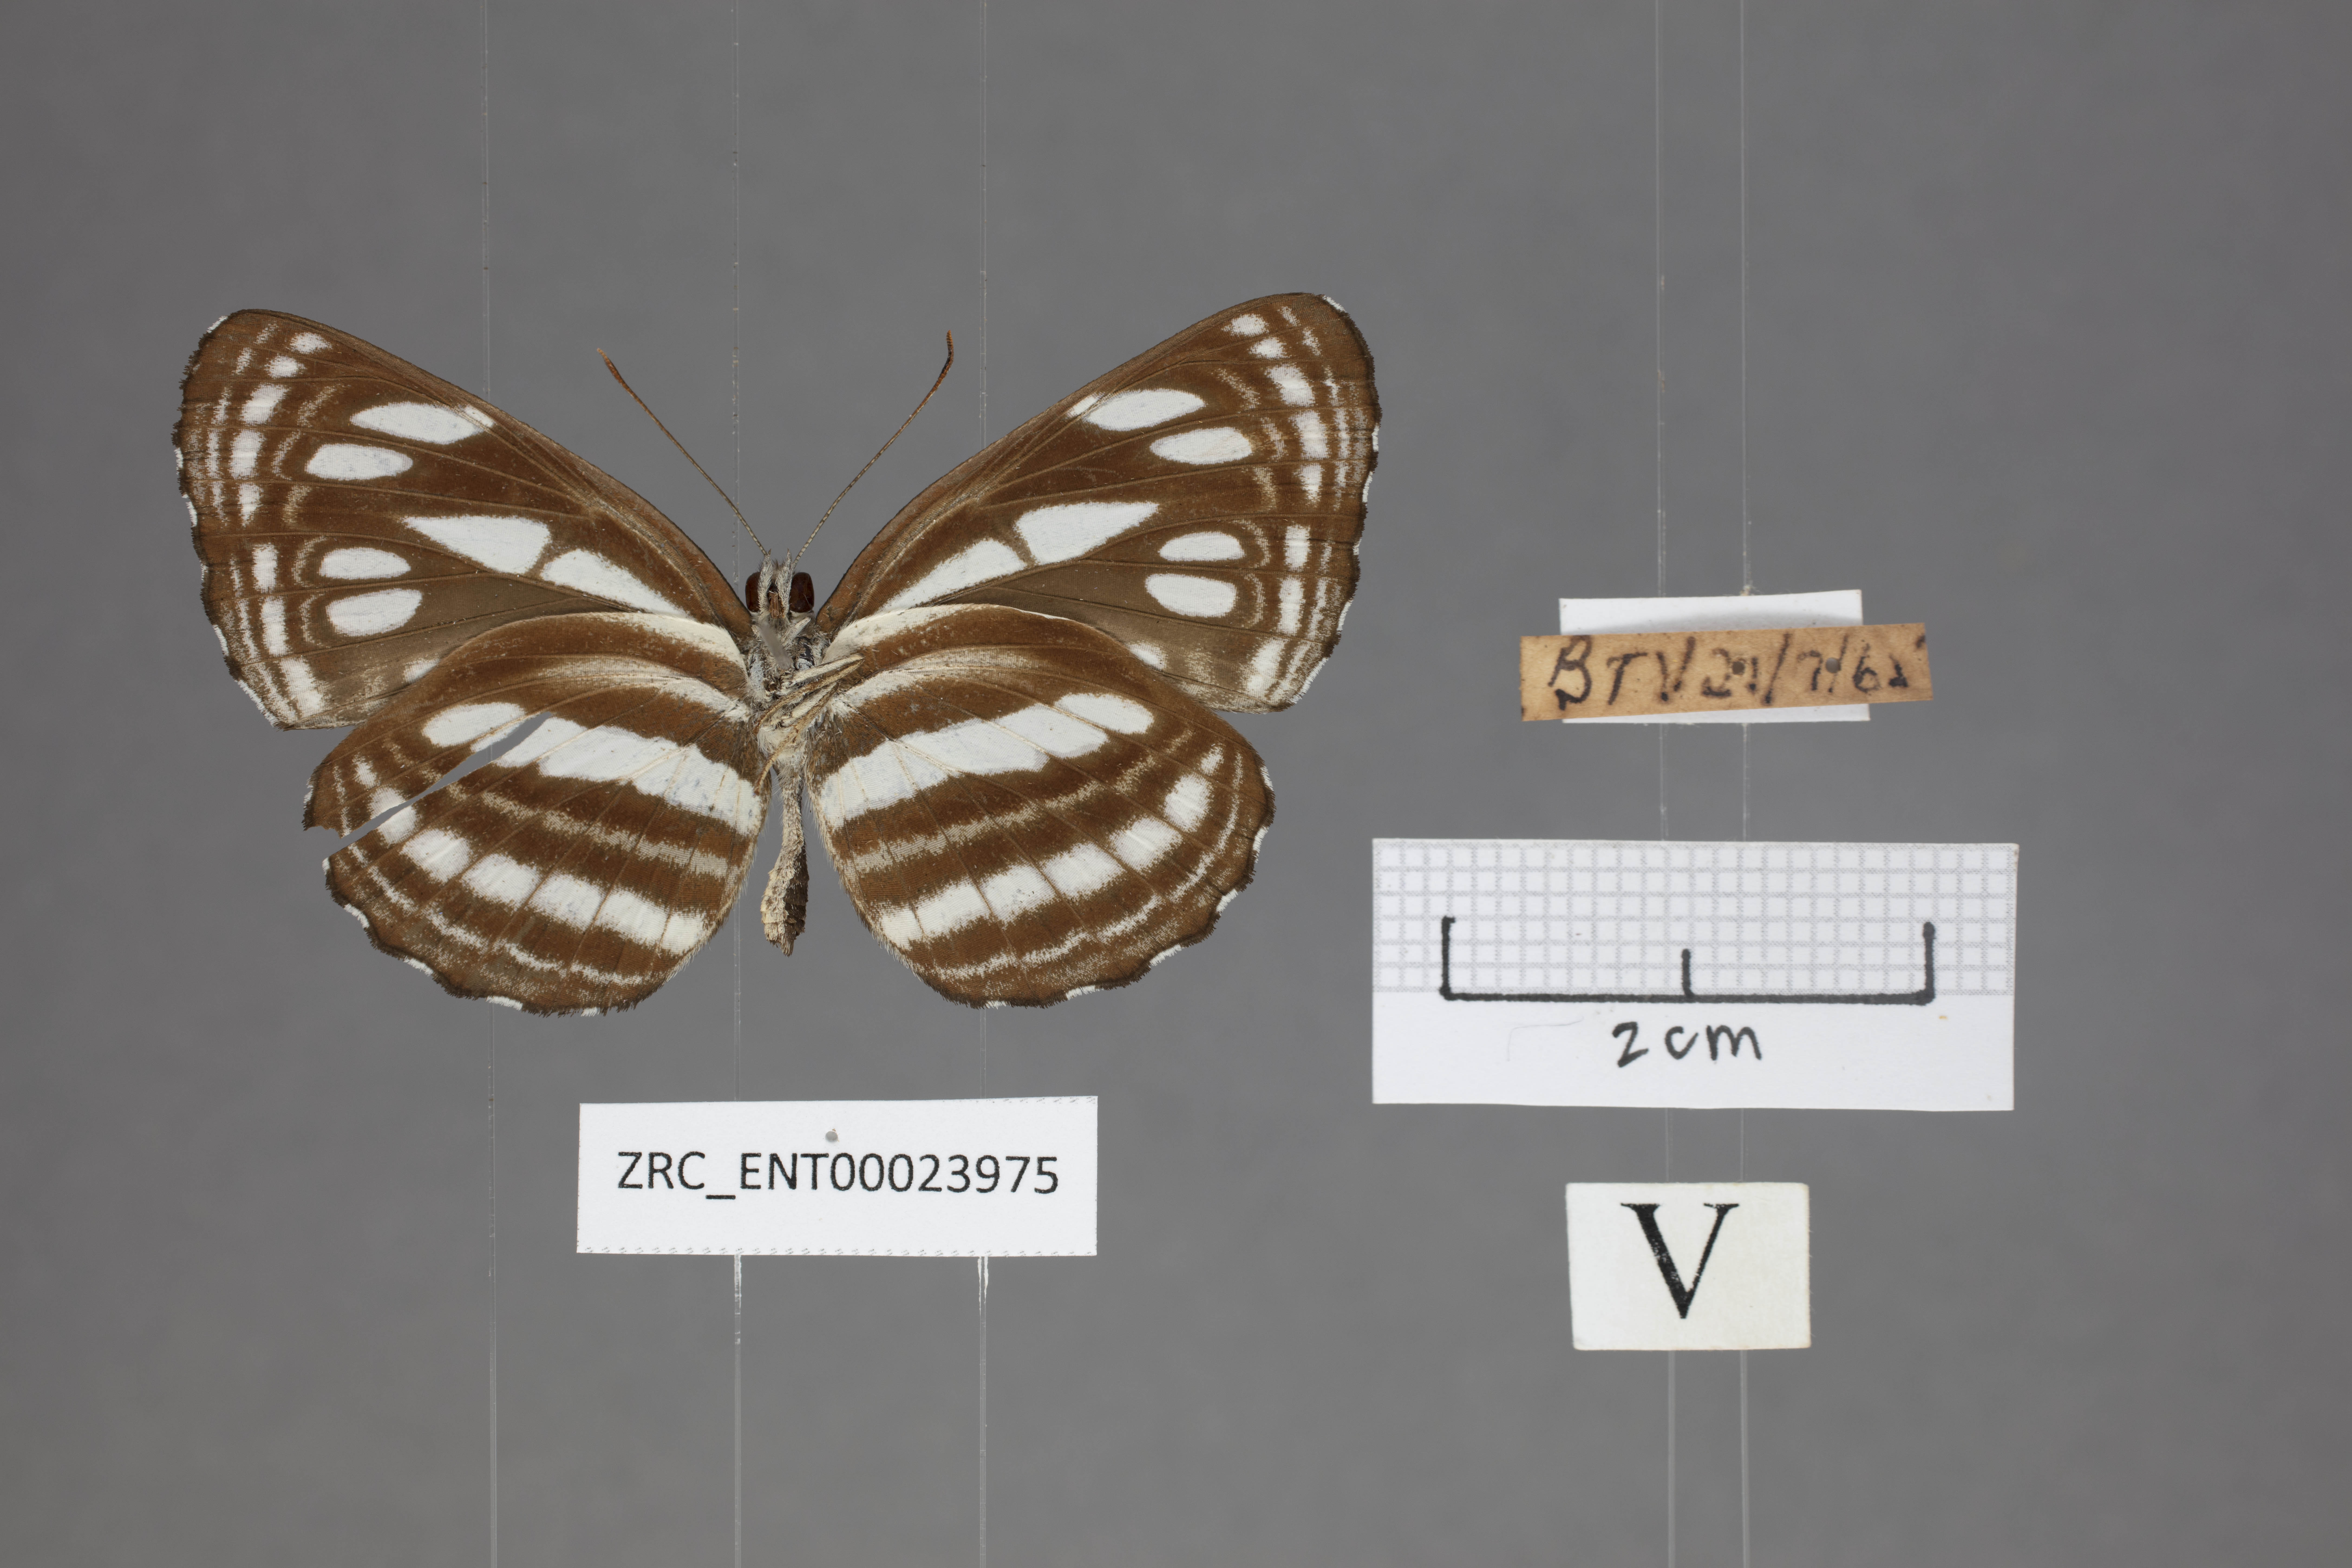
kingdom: Animalia
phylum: Arthropoda
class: Insecta
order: Lepidoptera
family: Nymphalidae
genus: Neptis
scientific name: Neptis duryodana
